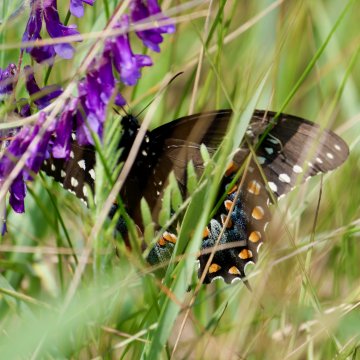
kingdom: Animalia
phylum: Arthropoda
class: Insecta
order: Lepidoptera
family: Papilionidae
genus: Pterourus
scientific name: Pterourus troilus
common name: Spicebush Swallowtail
